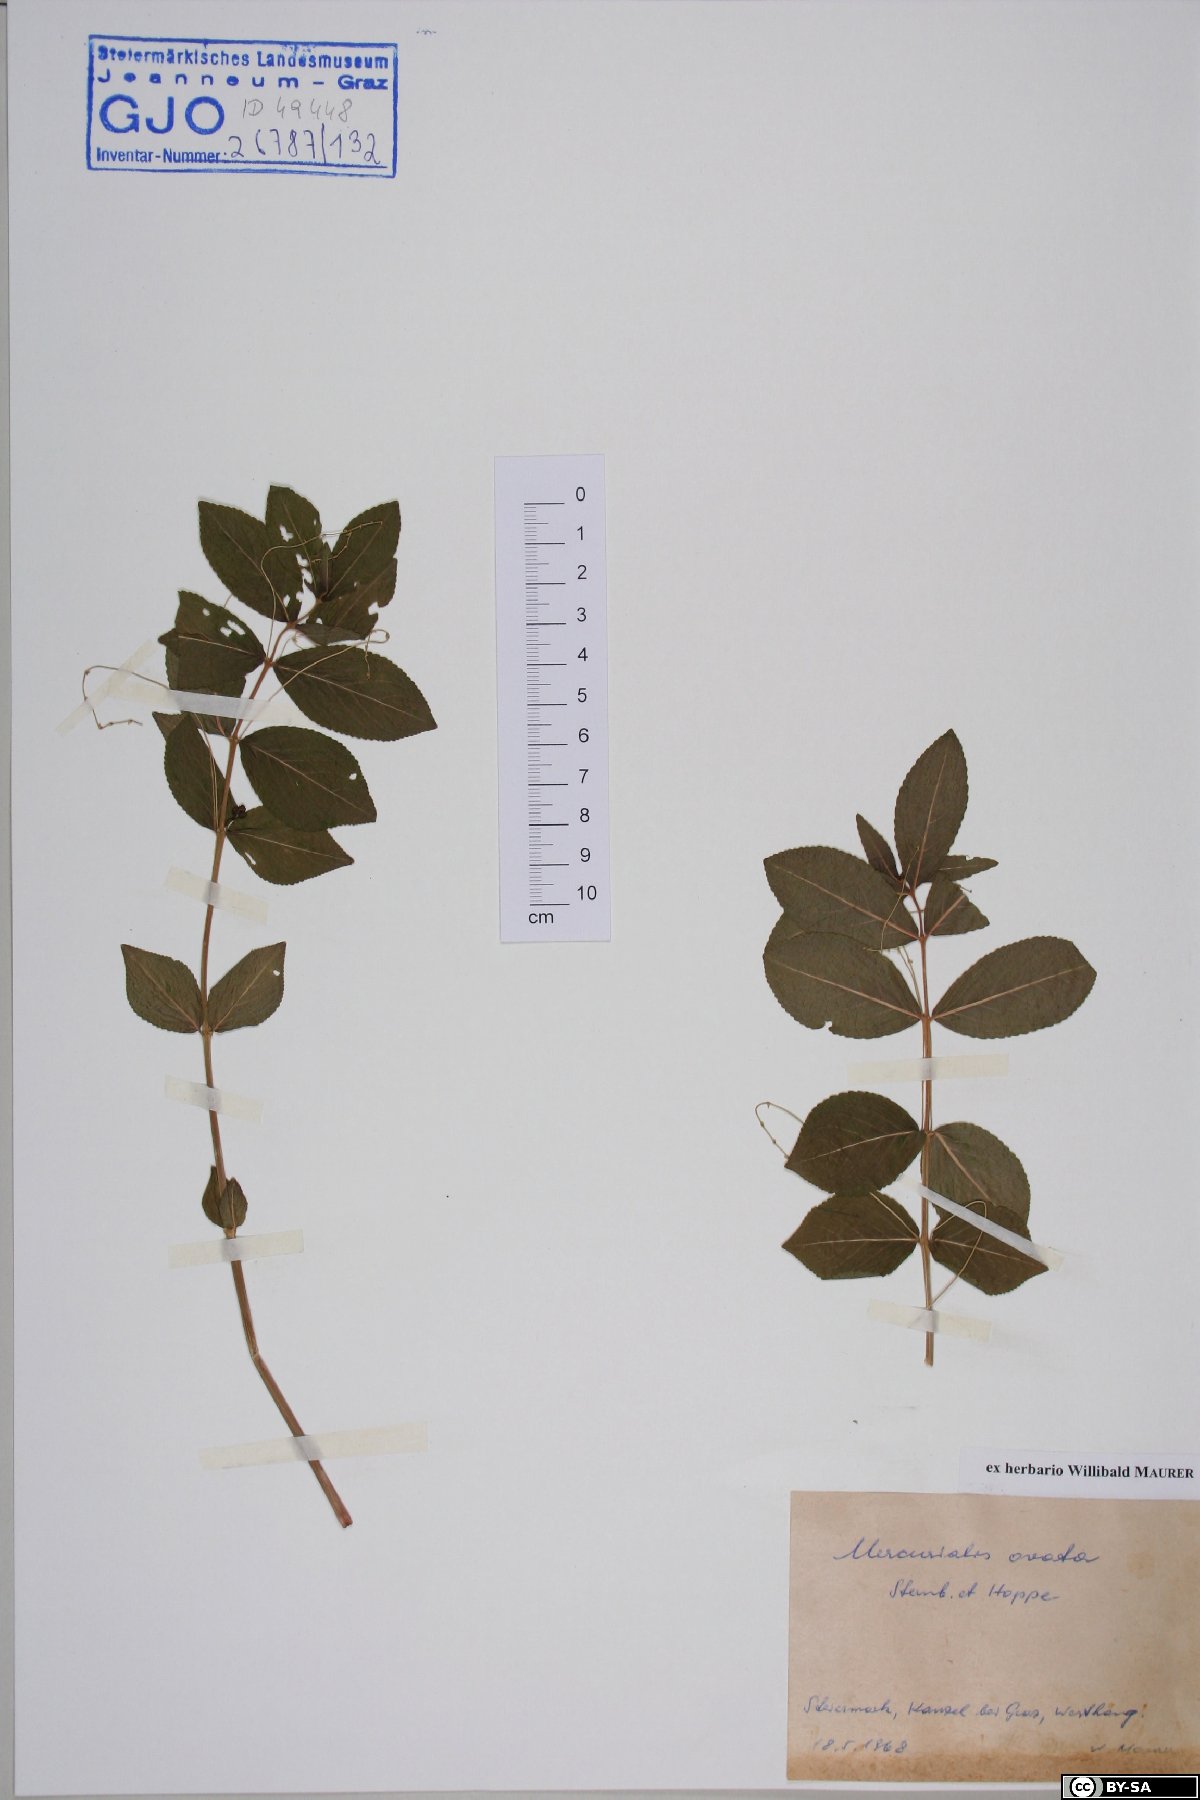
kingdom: Plantae
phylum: Tracheophyta
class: Magnoliopsida
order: Malpighiales
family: Euphorbiaceae
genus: Mercurialis
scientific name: Mercurialis ovata
